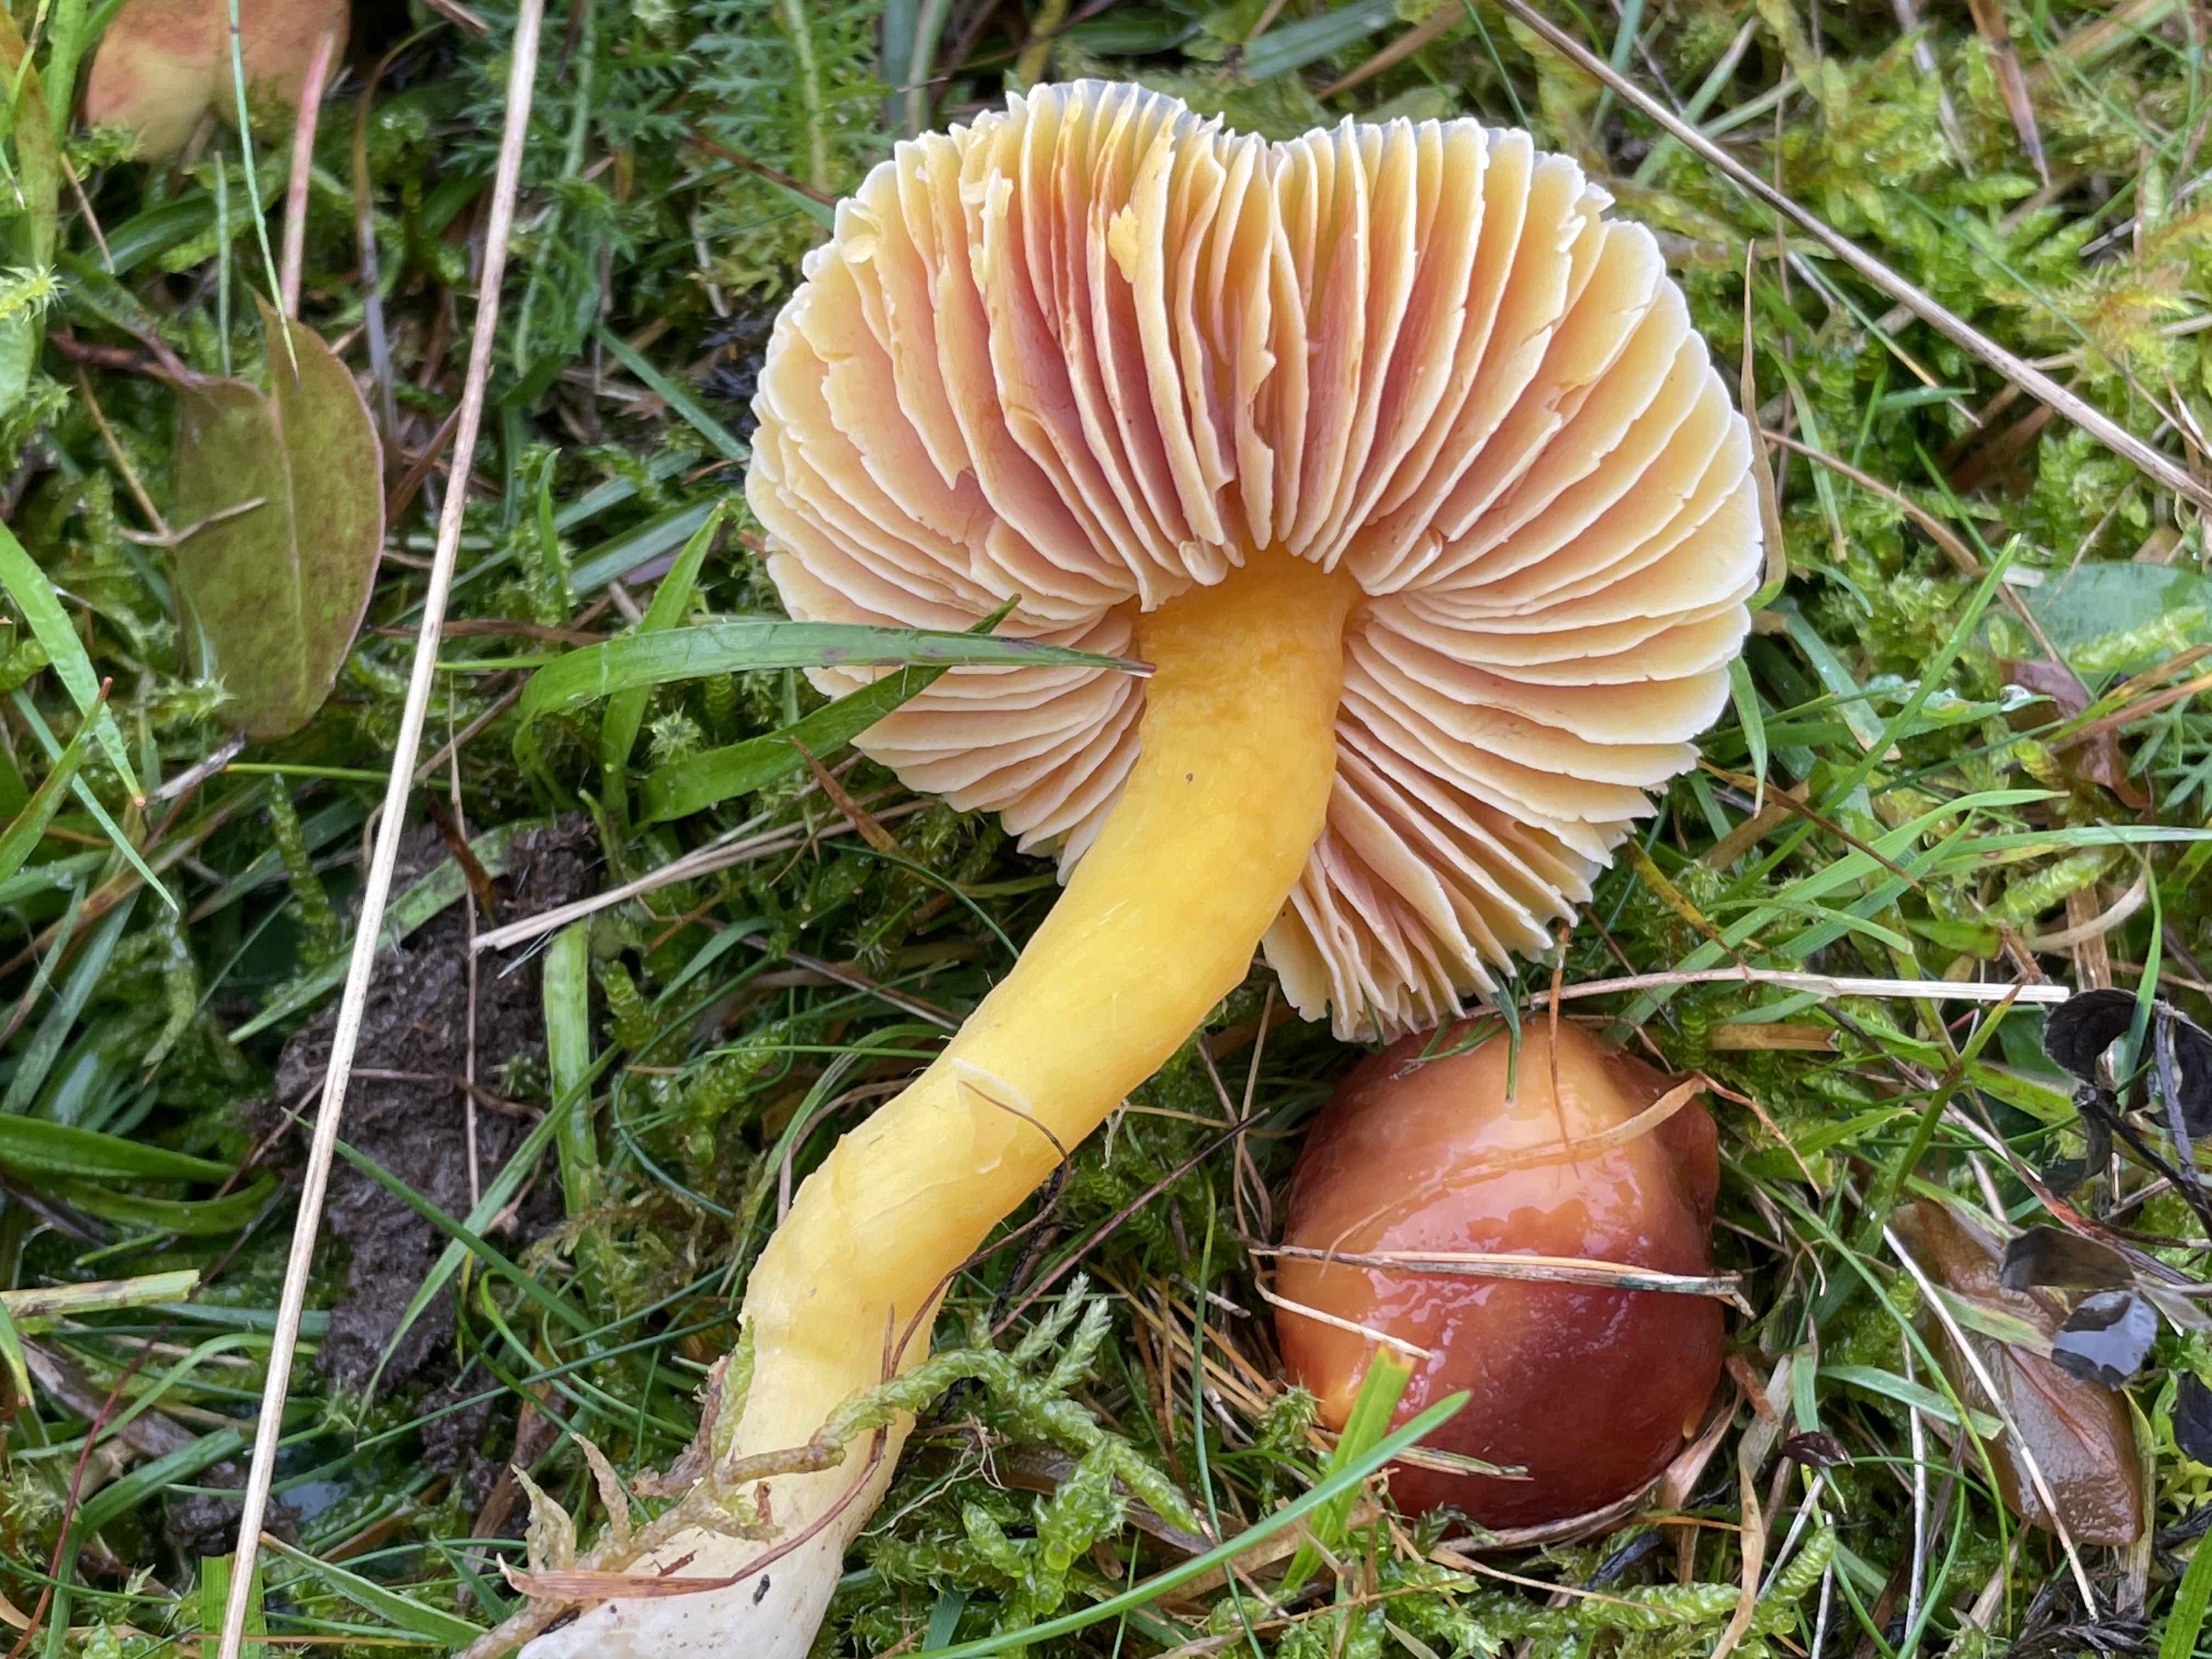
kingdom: Fungi
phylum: Basidiomycota
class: Agaricomycetes
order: Agaricales
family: Hygrophoraceae
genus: Hygrocybe
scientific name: Hygrocybe punicea
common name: skarlagen-vokshat
